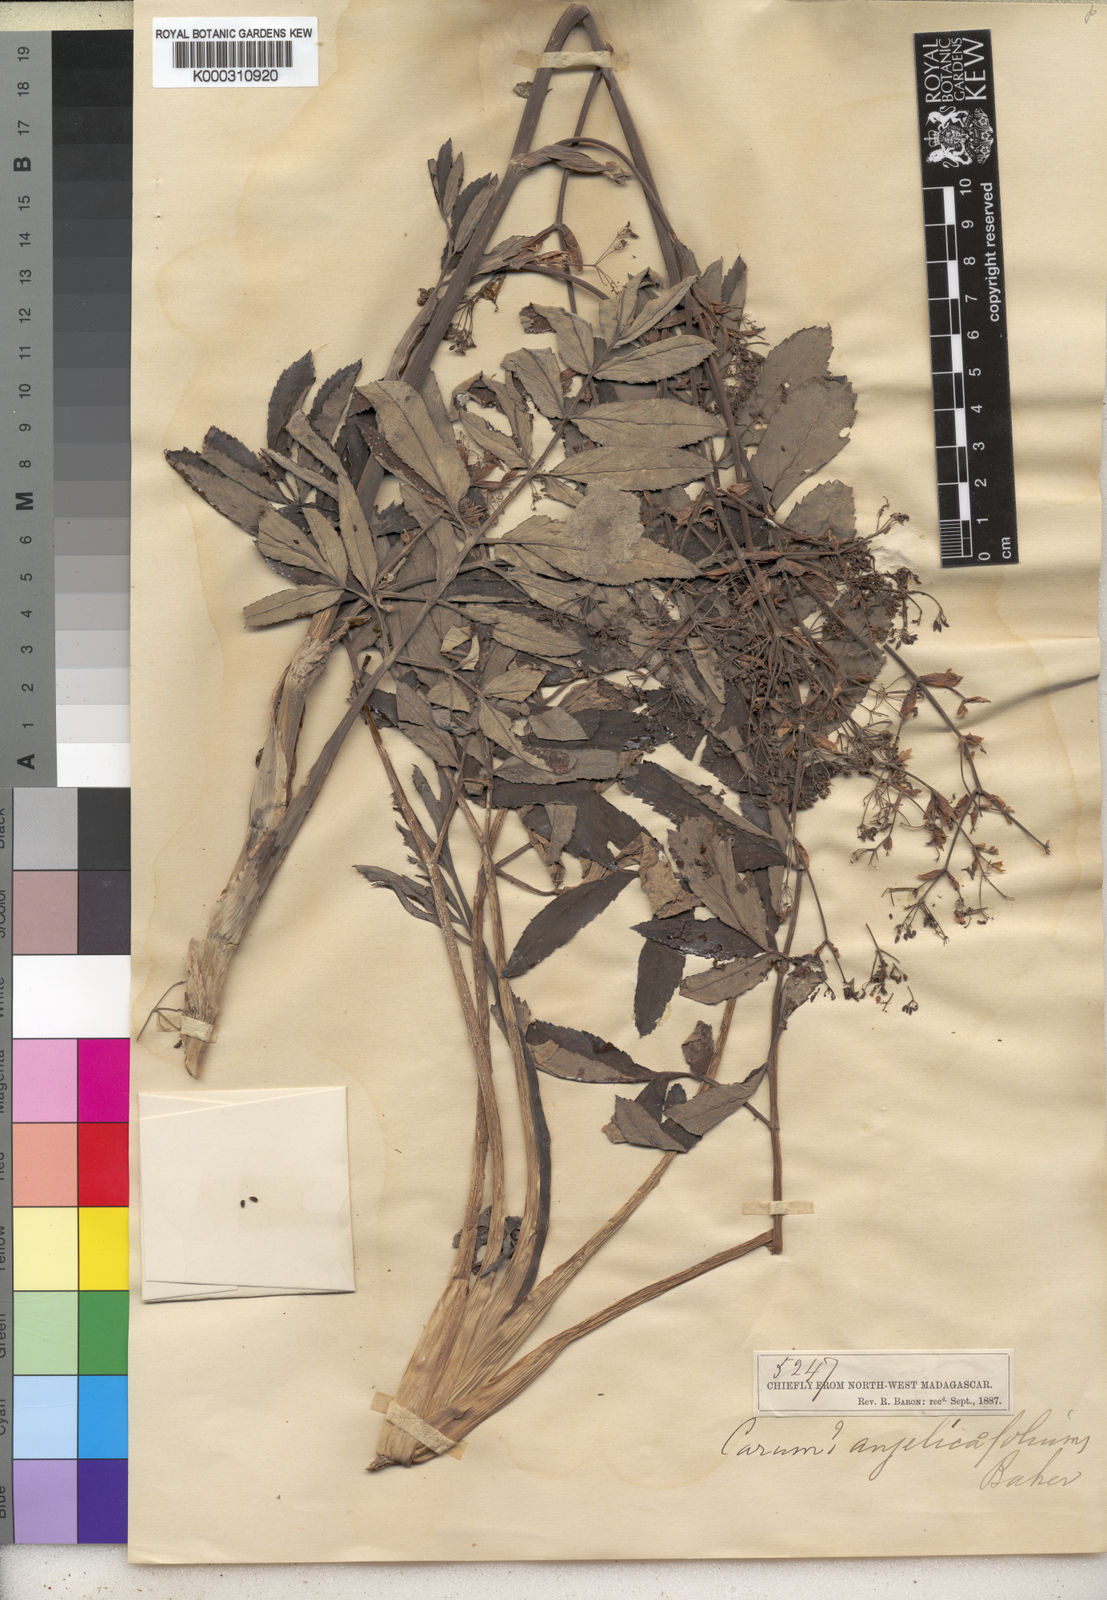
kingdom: Plantae
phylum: Tracheophyta
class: Magnoliopsida
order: Apiales
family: Apiaceae
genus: Carum
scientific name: Carum angelicifolium
